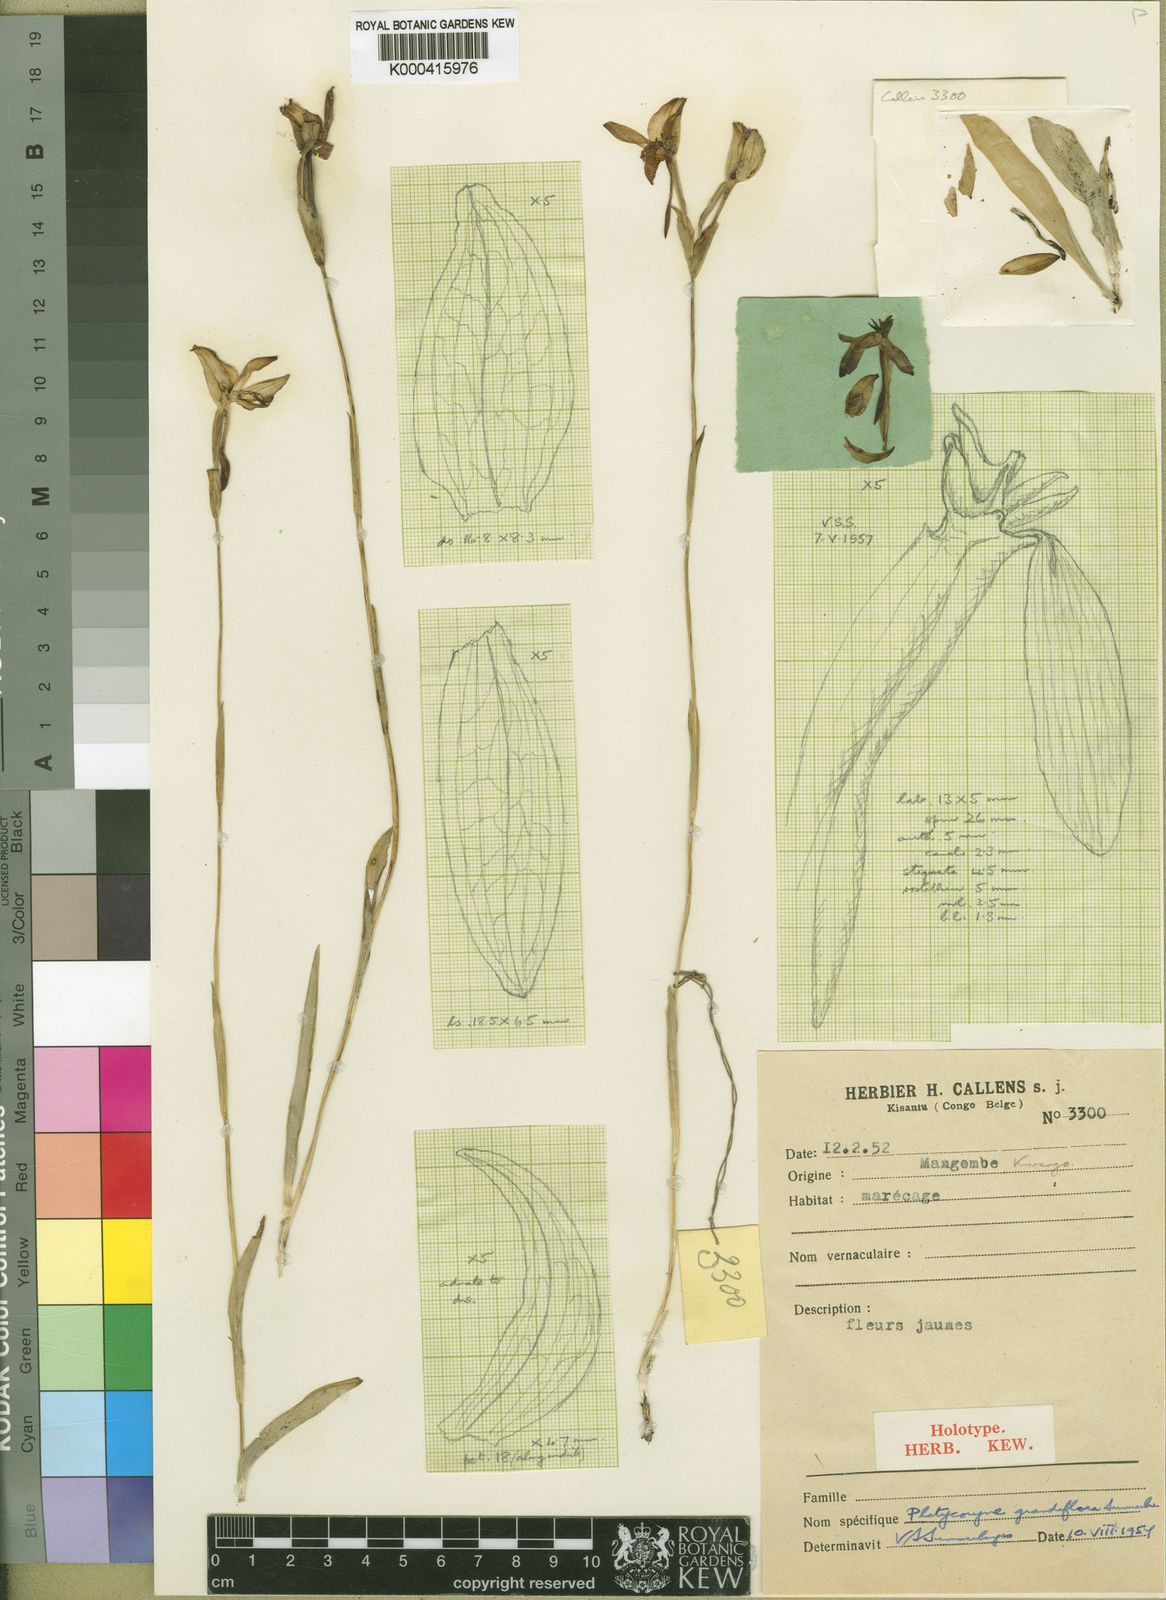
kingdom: Plantae
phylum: Tracheophyta
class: Liliopsida
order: Asparagales
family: Orchidaceae
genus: Platycoryne
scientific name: Platycoryne latipetala
